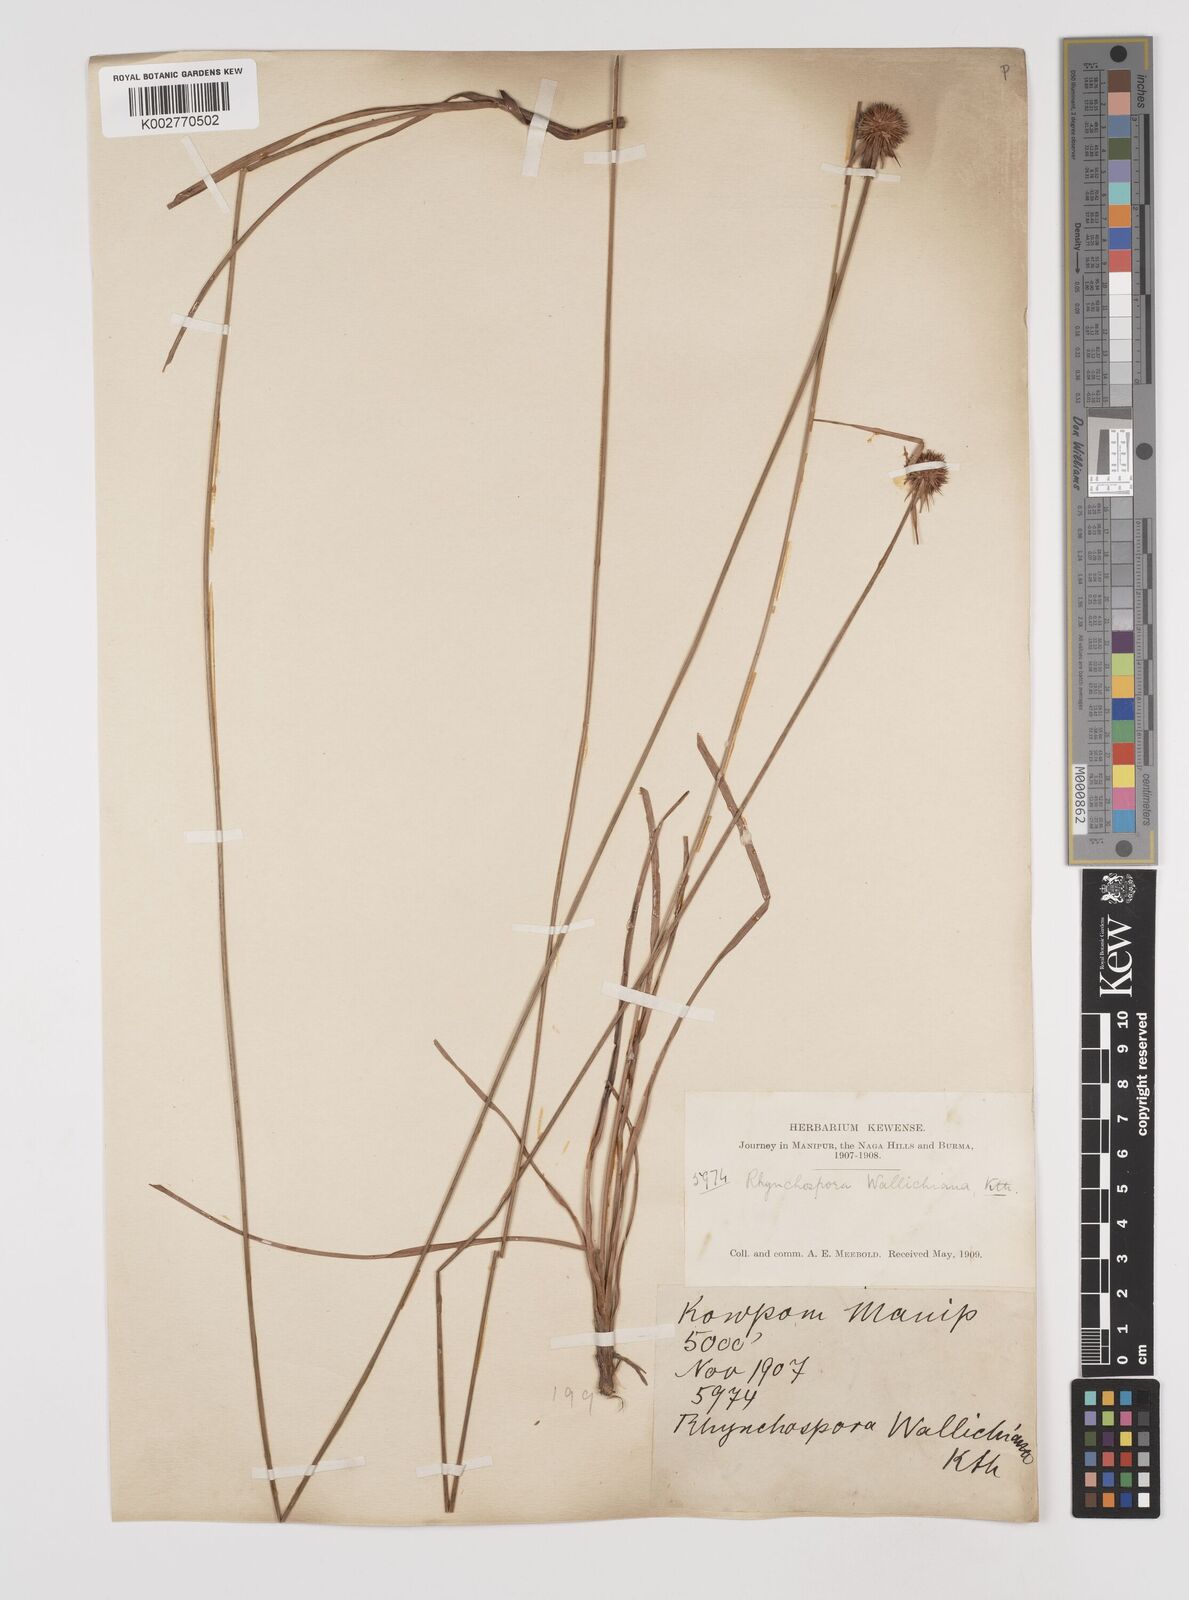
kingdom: Plantae
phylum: Tracheophyta
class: Liliopsida
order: Poales
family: Cyperaceae
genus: Rhynchospora
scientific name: Rhynchospora rubra
